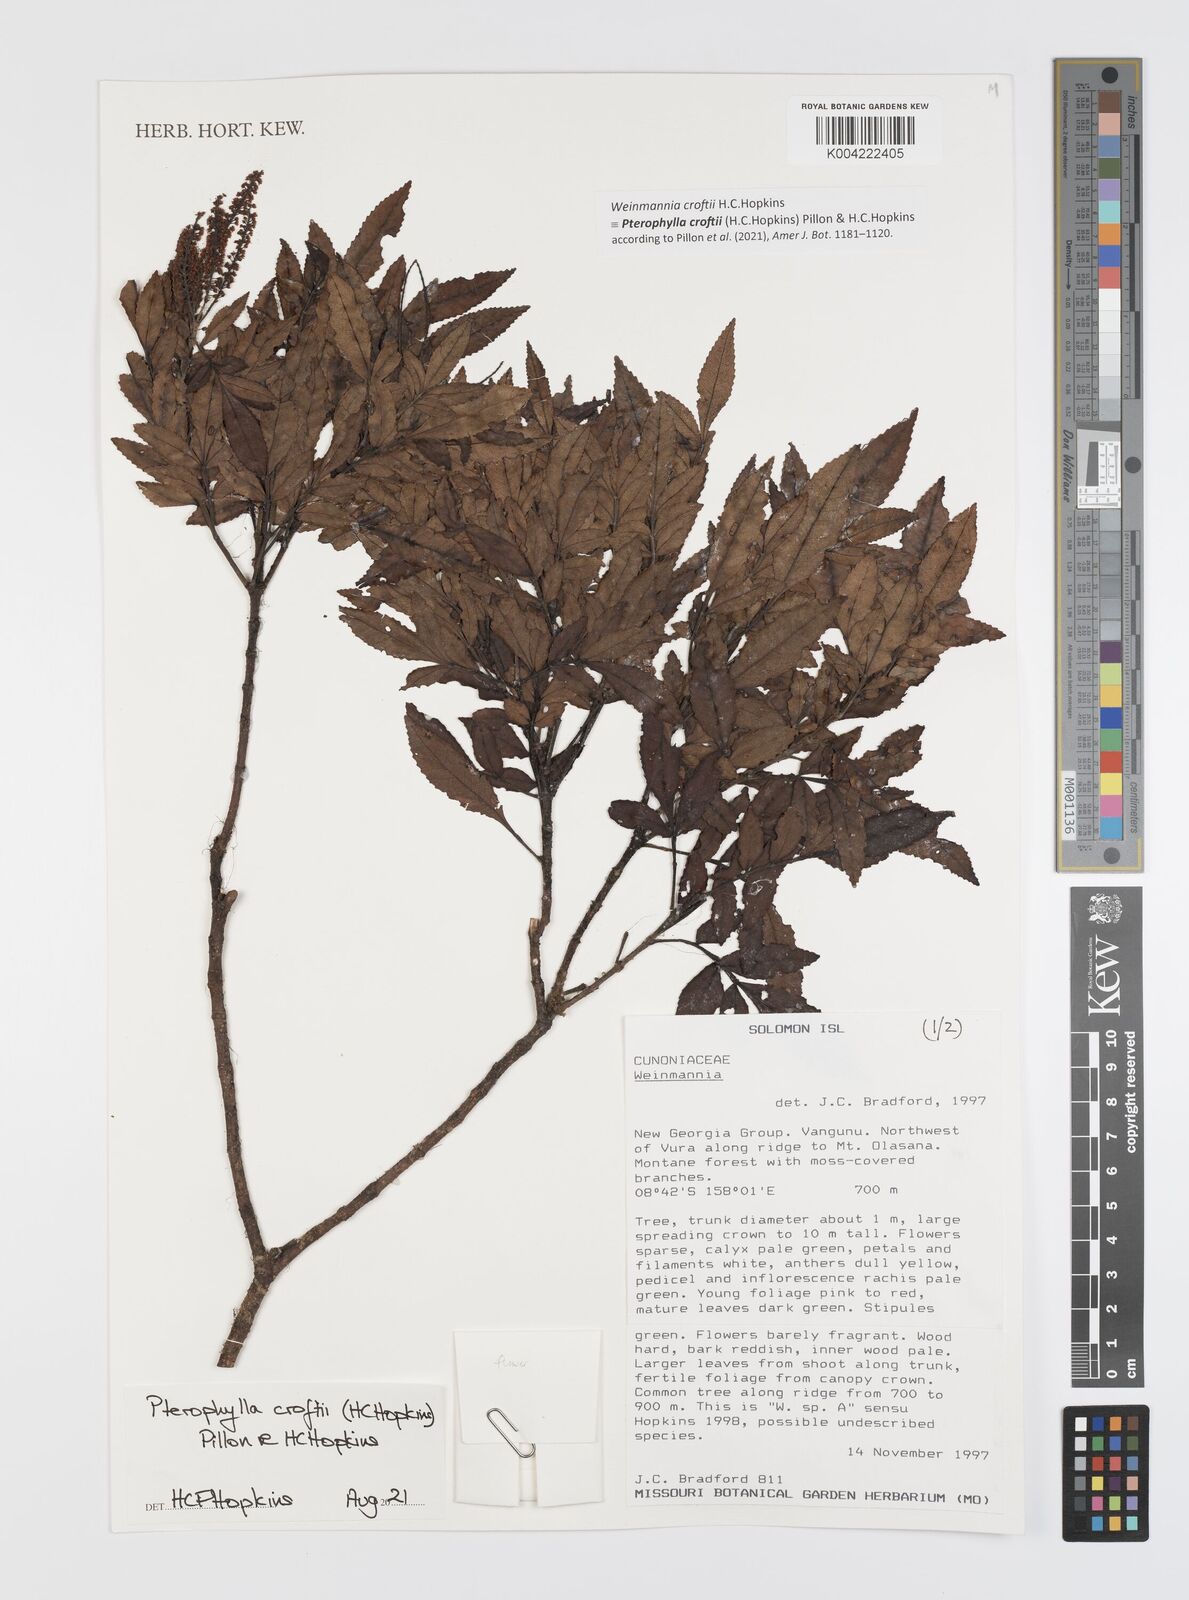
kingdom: Plantae
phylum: Tracheophyta
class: Magnoliopsida
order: Oxalidales
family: Cunoniaceae
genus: Pterophylla
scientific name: Pterophylla croftii
